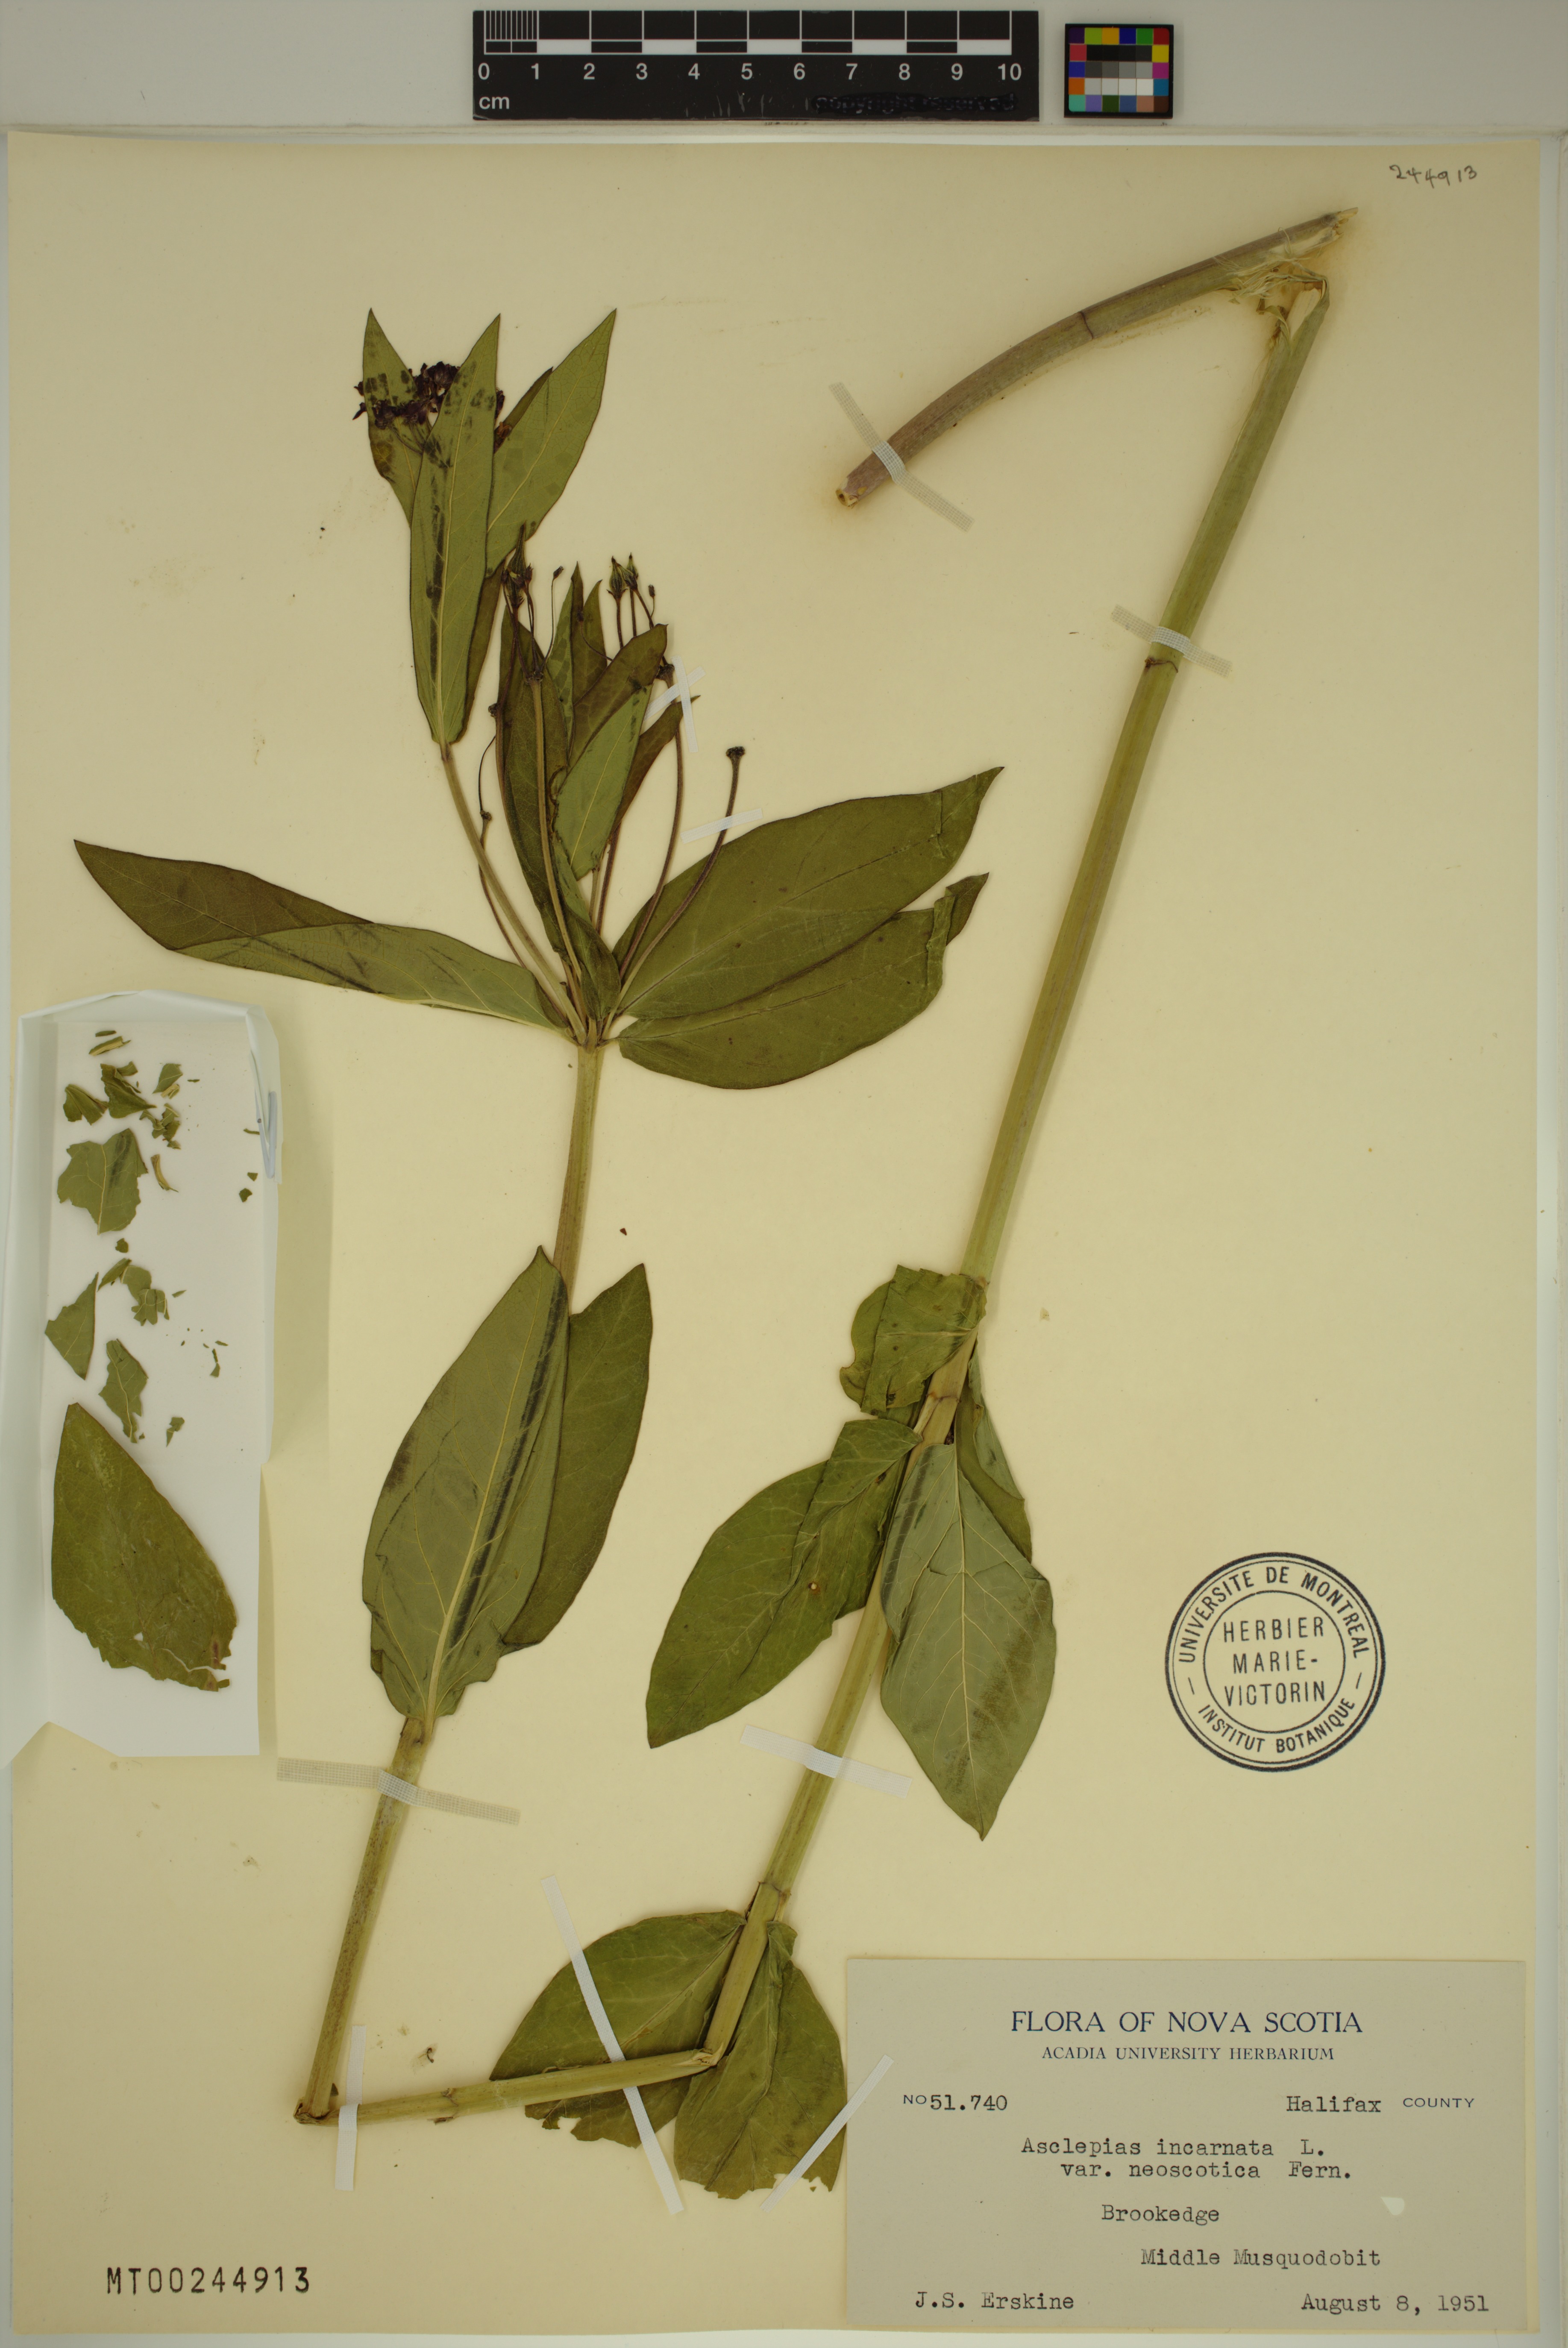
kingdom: Plantae
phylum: Tracheophyta
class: Magnoliopsida
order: Gentianales
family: Apocynaceae
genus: Asclepias
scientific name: Asclepias incarnata
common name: Swamp milkweed
